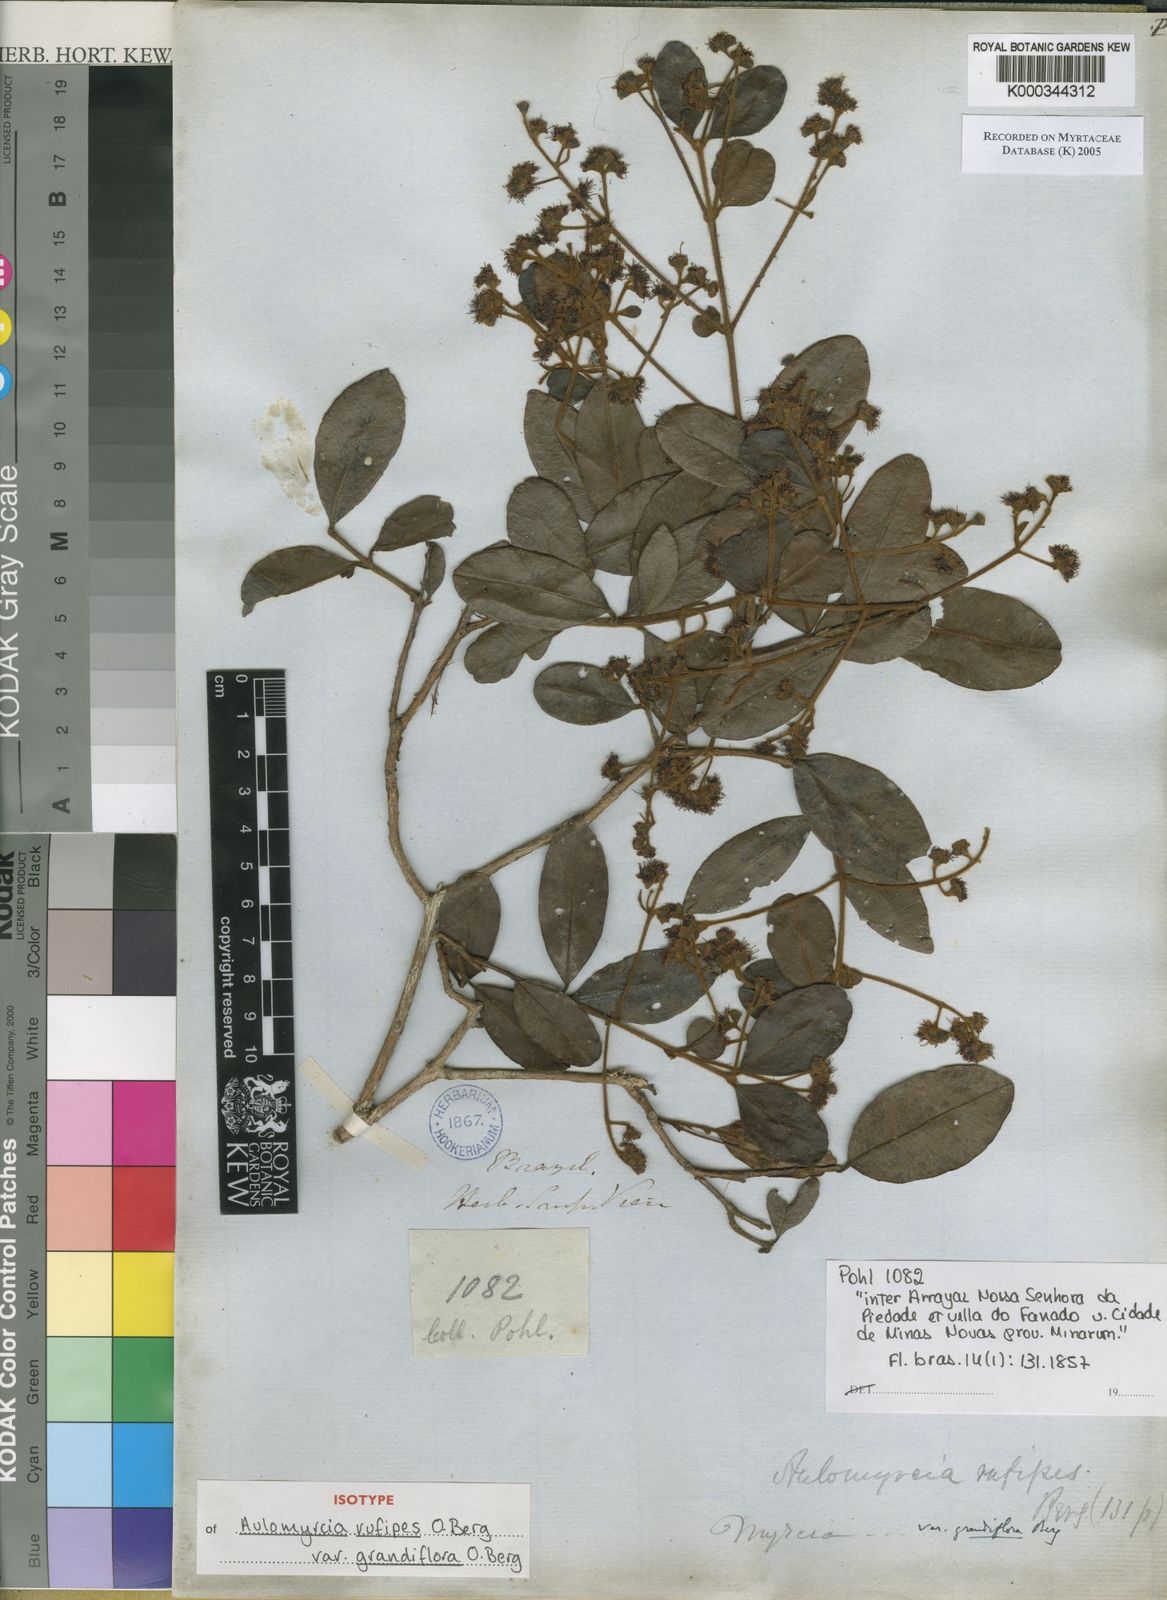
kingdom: Plantae
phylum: Tracheophyta
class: Magnoliopsida
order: Myrtales
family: Myrtaceae
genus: Myrcia
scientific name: Myrcia rufipes
